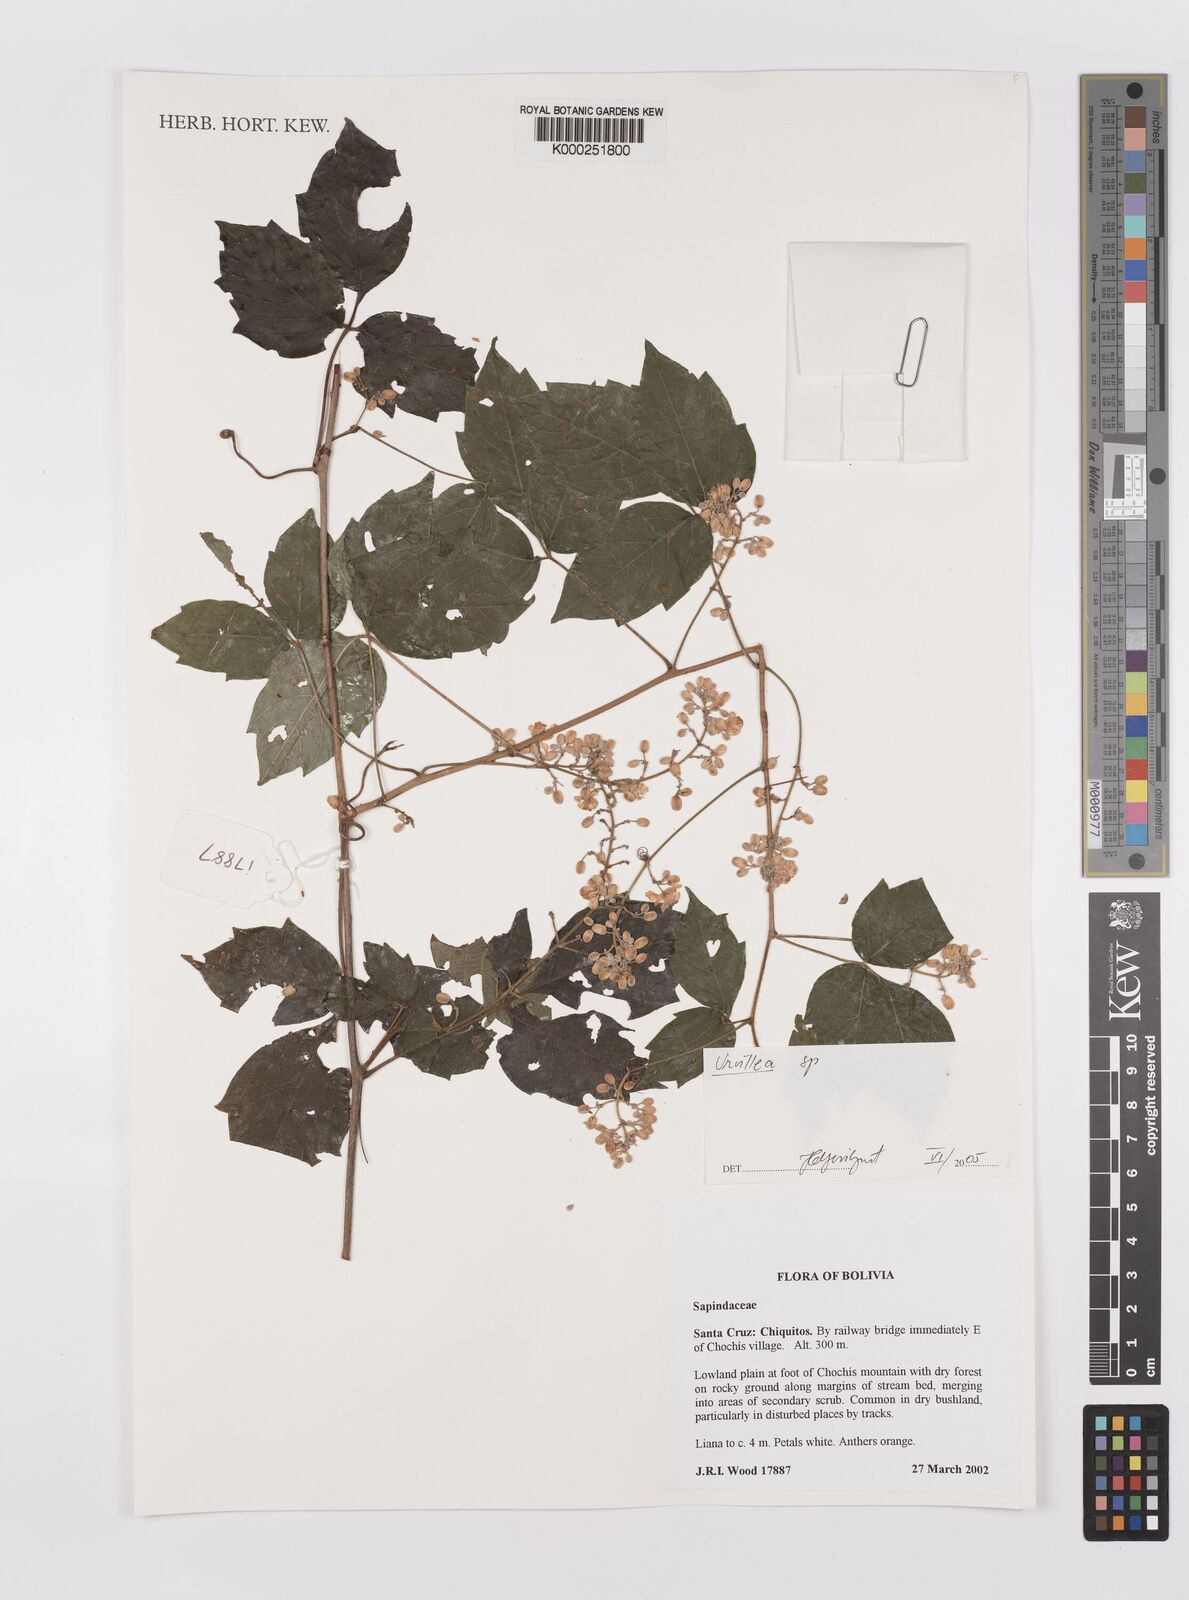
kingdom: Plantae
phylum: Tracheophyta
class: Magnoliopsida
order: Sapindales
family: Sapindaceae
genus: Urvillea
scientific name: Urvillea
